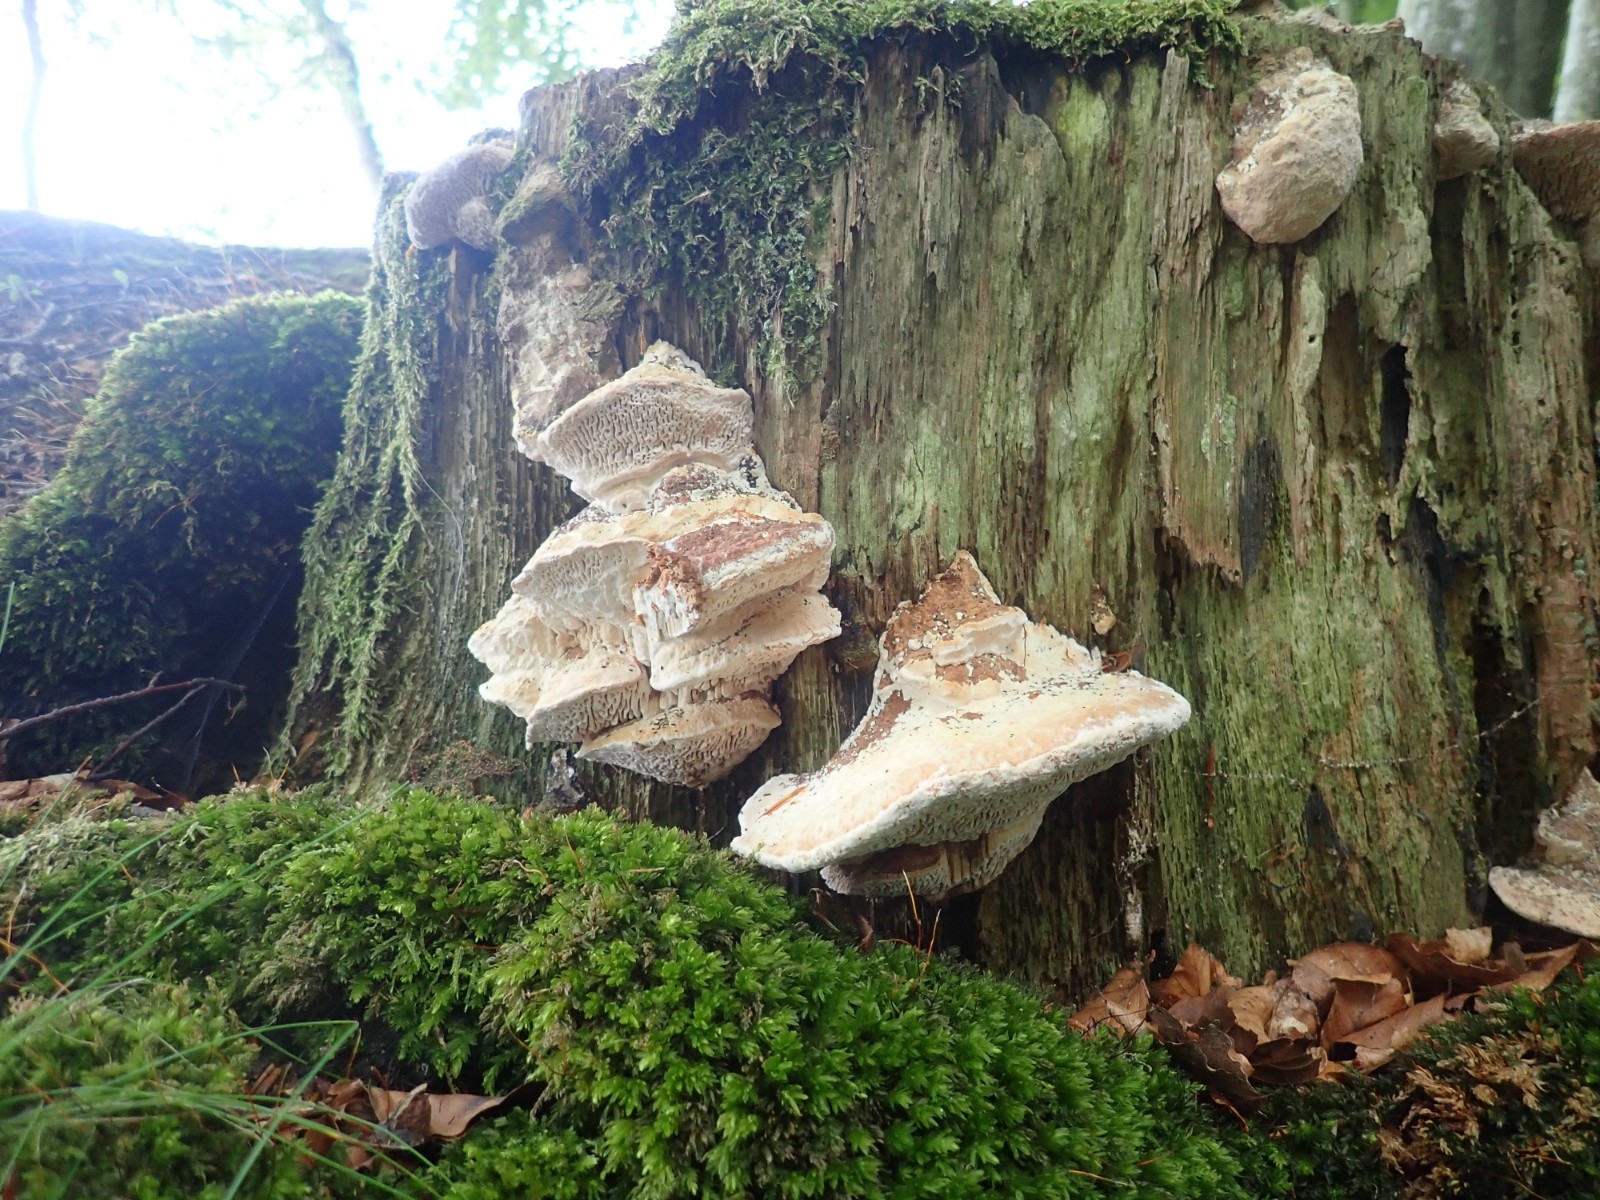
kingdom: Fungi
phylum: Basidiomycota
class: Agaricomycetes
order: Polyporales
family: Fomitopsidaceae
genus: Daedalea
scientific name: Daedalea quercina
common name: ege-labyrintsvamp
